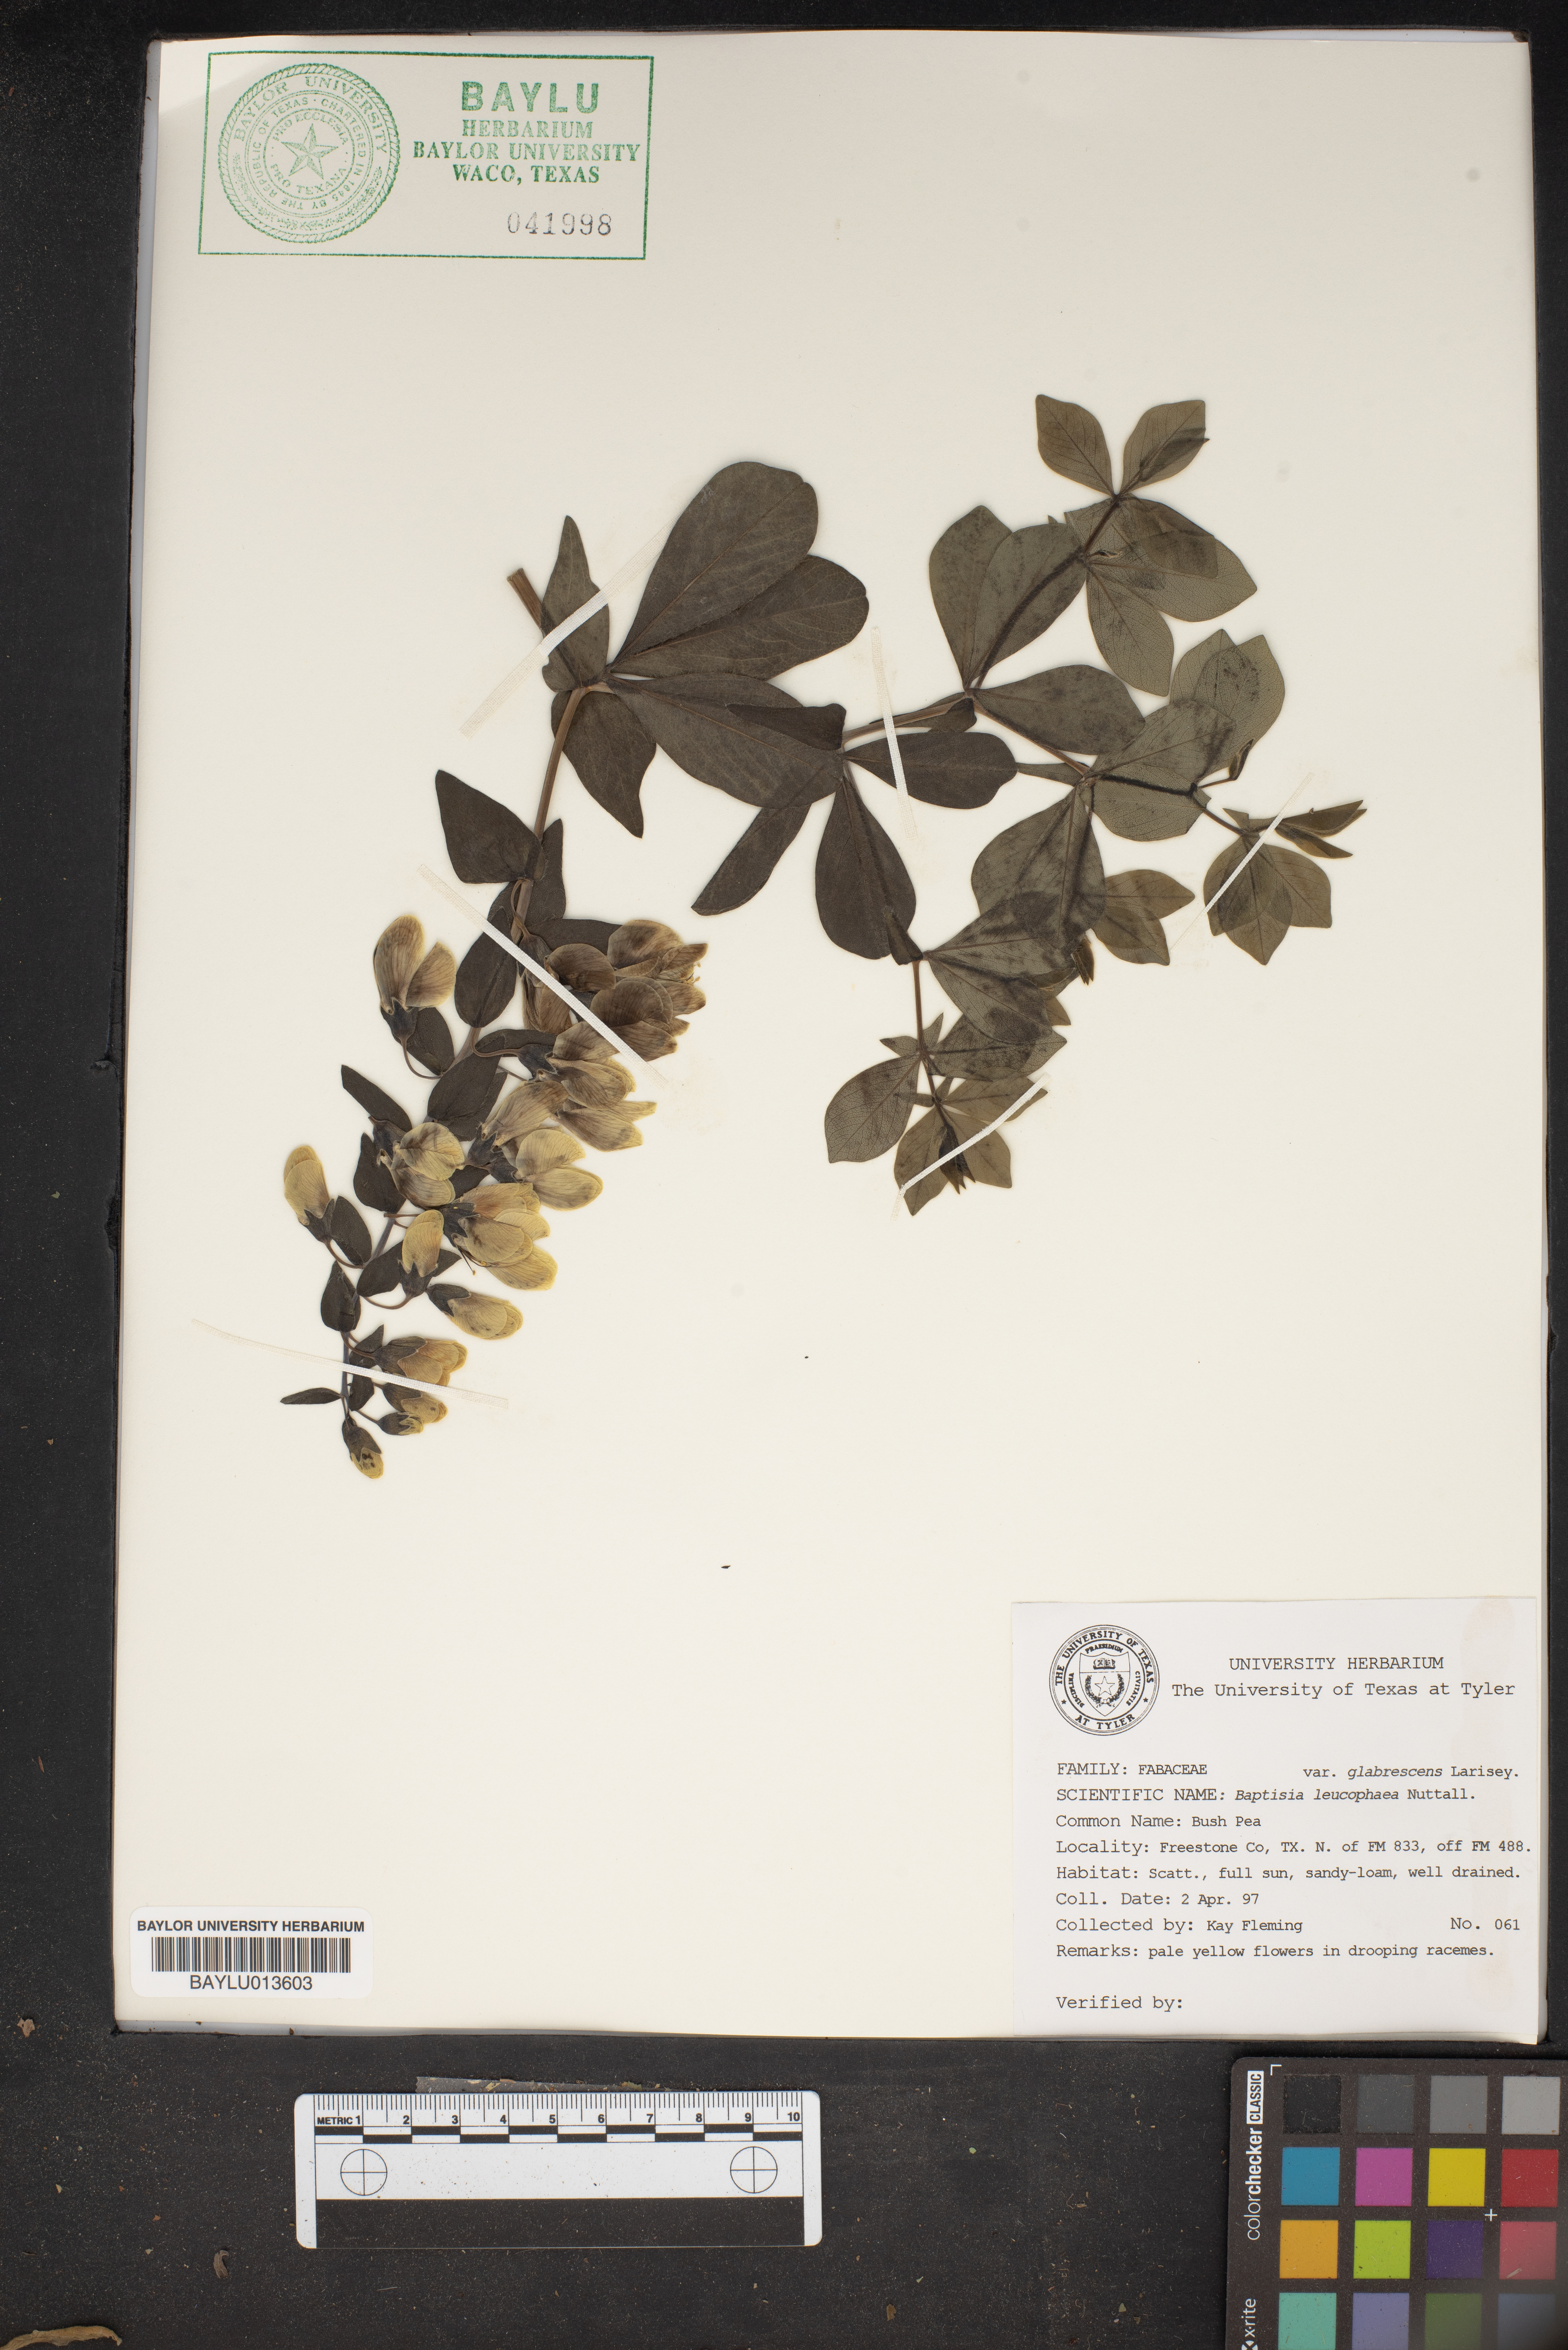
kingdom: Plantae
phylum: Tracheophyta
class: Magnoliopsida
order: Fabales
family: Fabaceae
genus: Baptisia
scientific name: Baptisia bracteata
